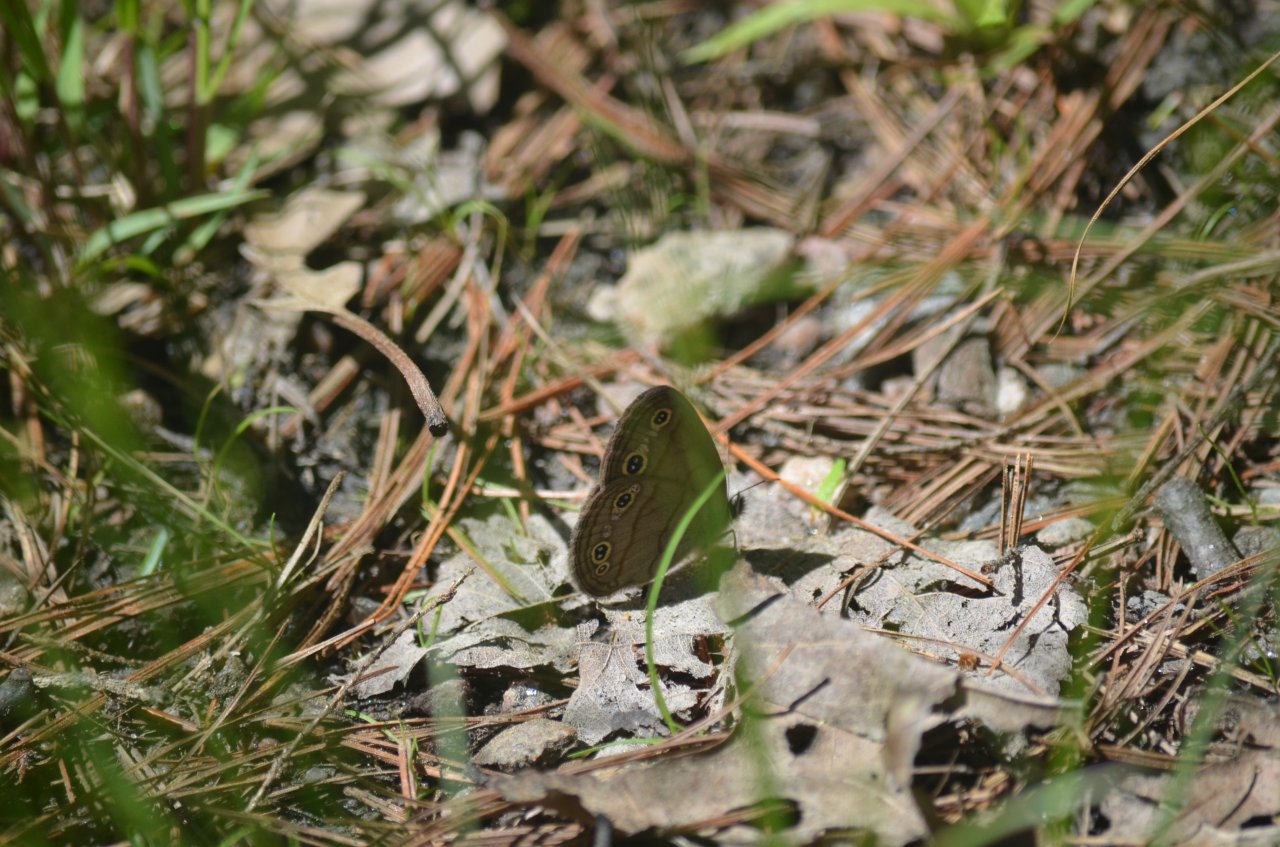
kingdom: Animalia
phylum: Arthropoda
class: Insecta
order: Lepidoptera
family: Nymphalidae
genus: Euptychia
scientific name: Euptychia cymela
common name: Little Wood Satyr
